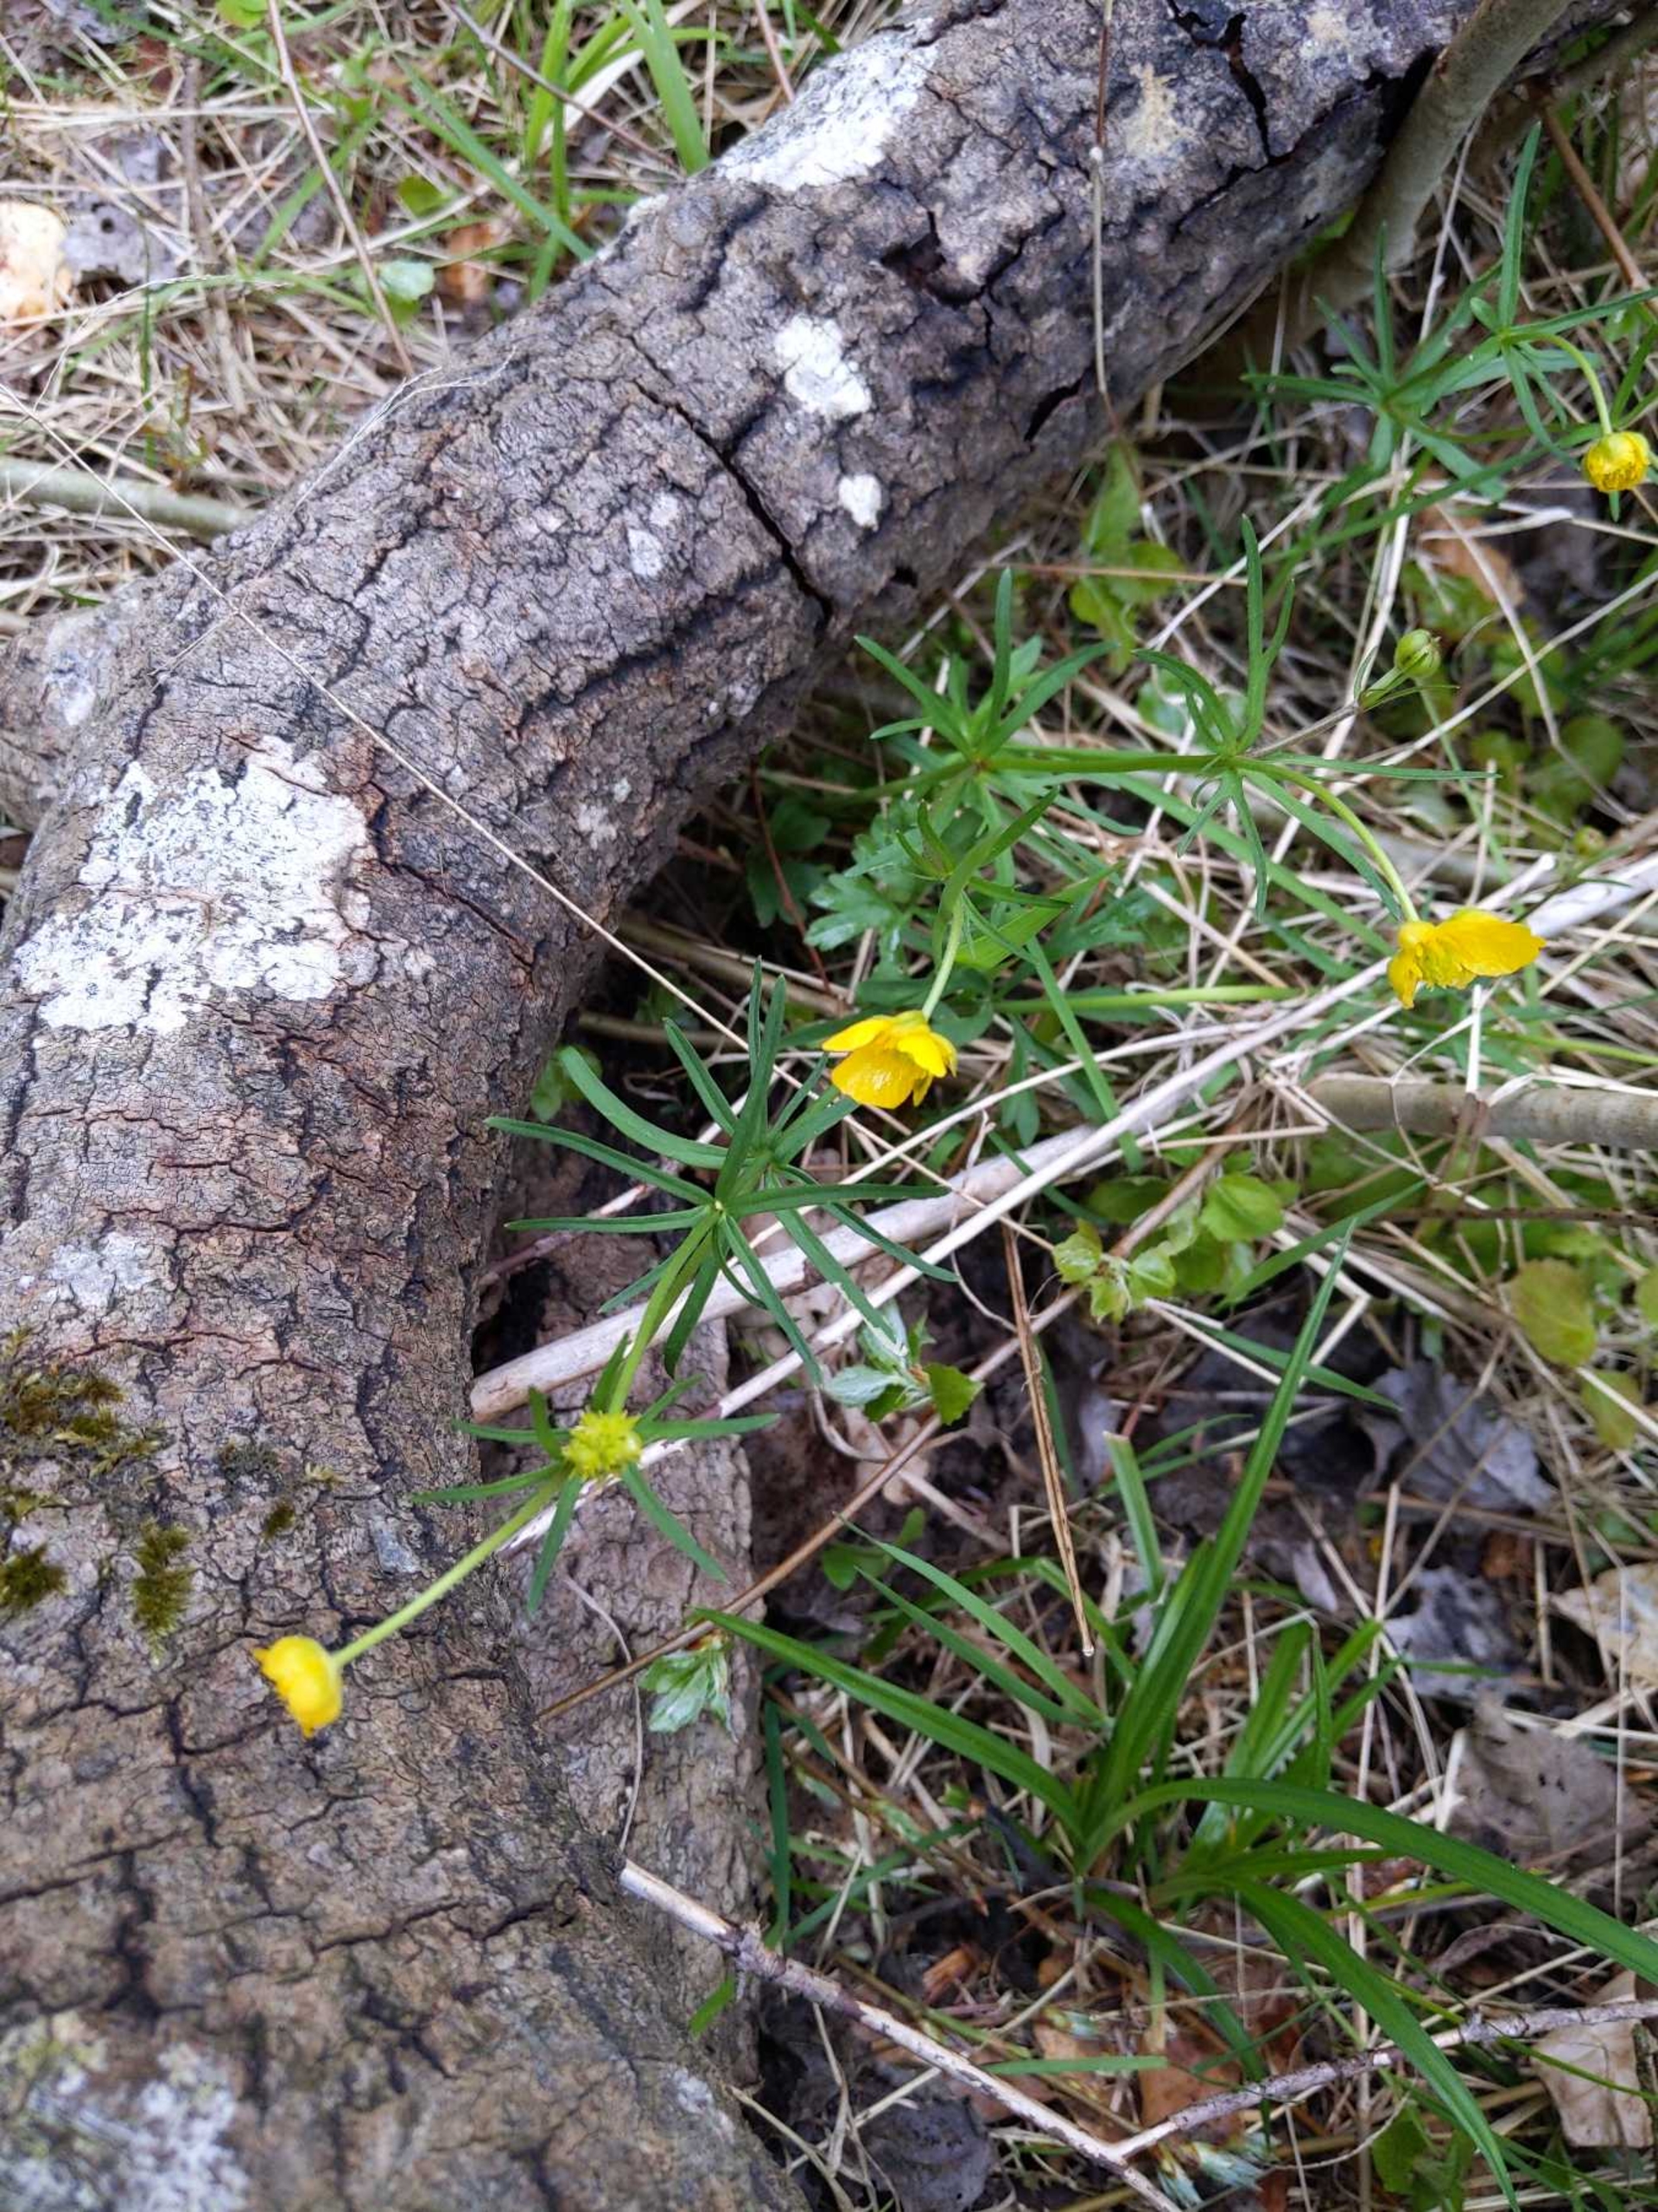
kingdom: Plantae
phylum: Tracheophyta
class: Magnoliopsida
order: Ranunculales
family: Ranunculaceae
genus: Ranunculus
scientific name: Ranunculus auricomus
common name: Nyrebladet ranunkel
